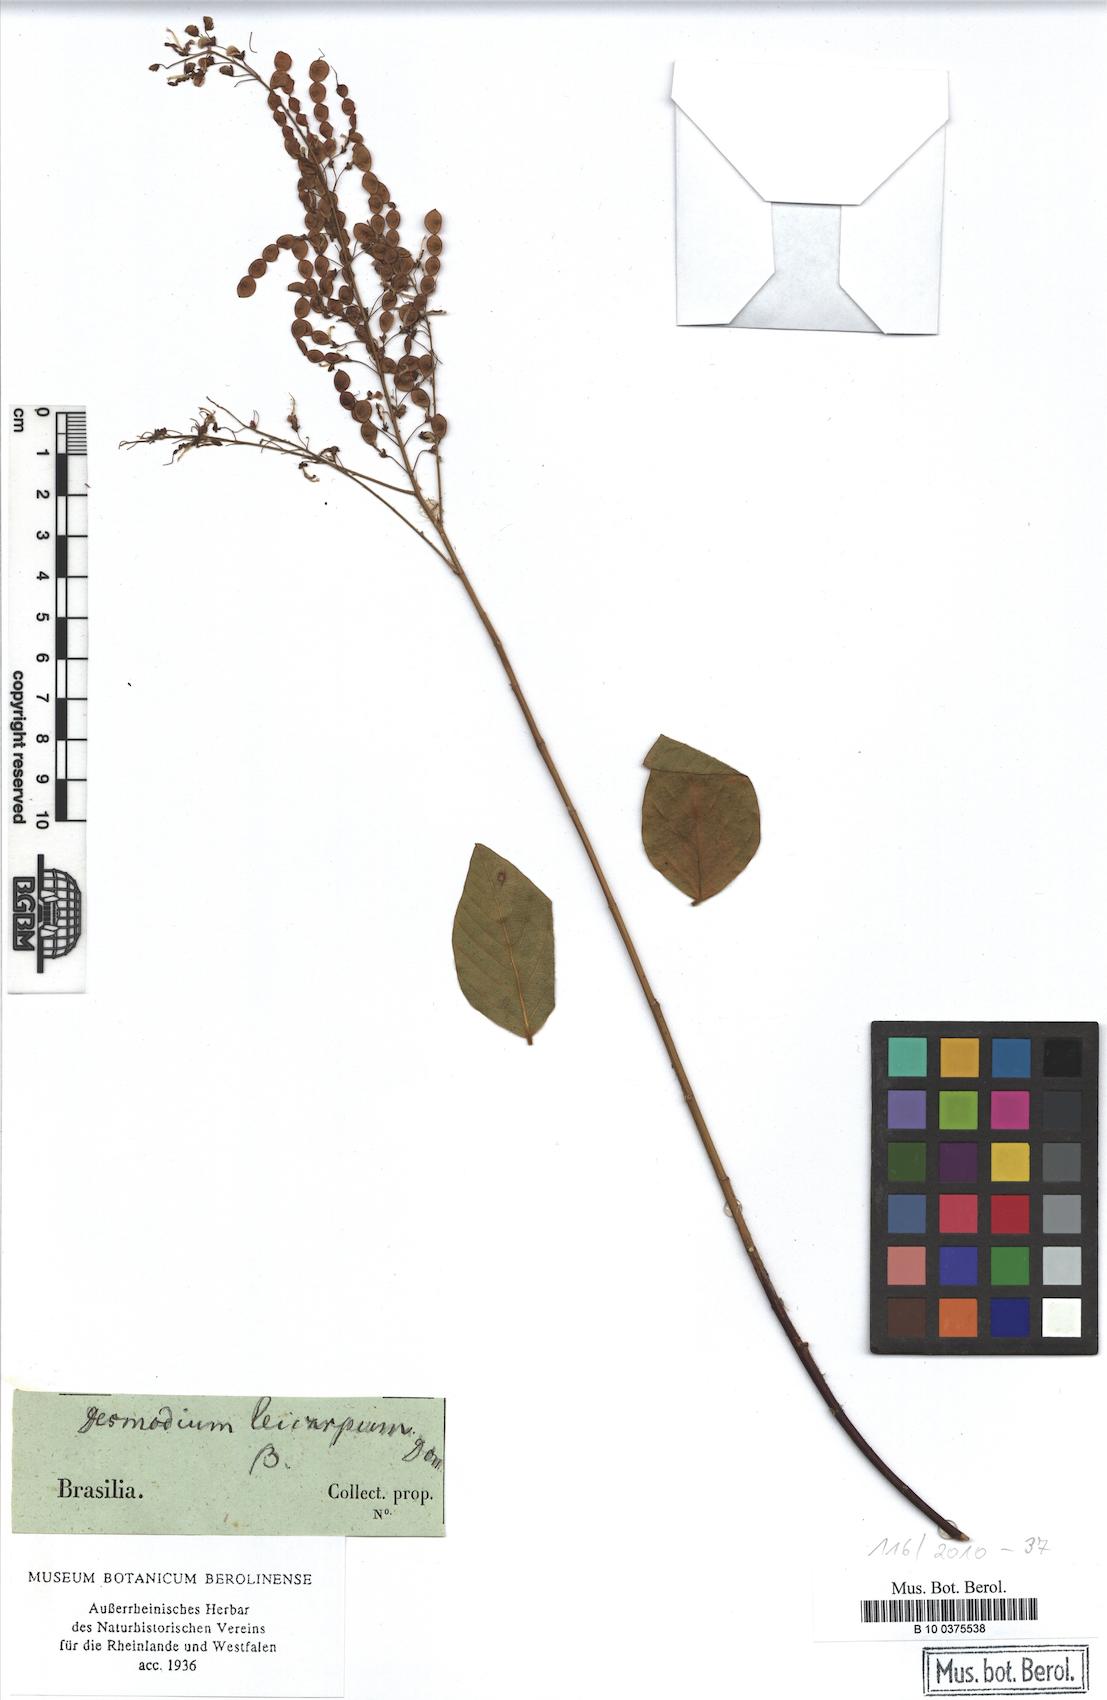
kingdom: Plantae
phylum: Tracheophyta
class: Magnoliopsida
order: Fabales
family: Fabaceae
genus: Desmodium
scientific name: Desmodium leiocarpum
